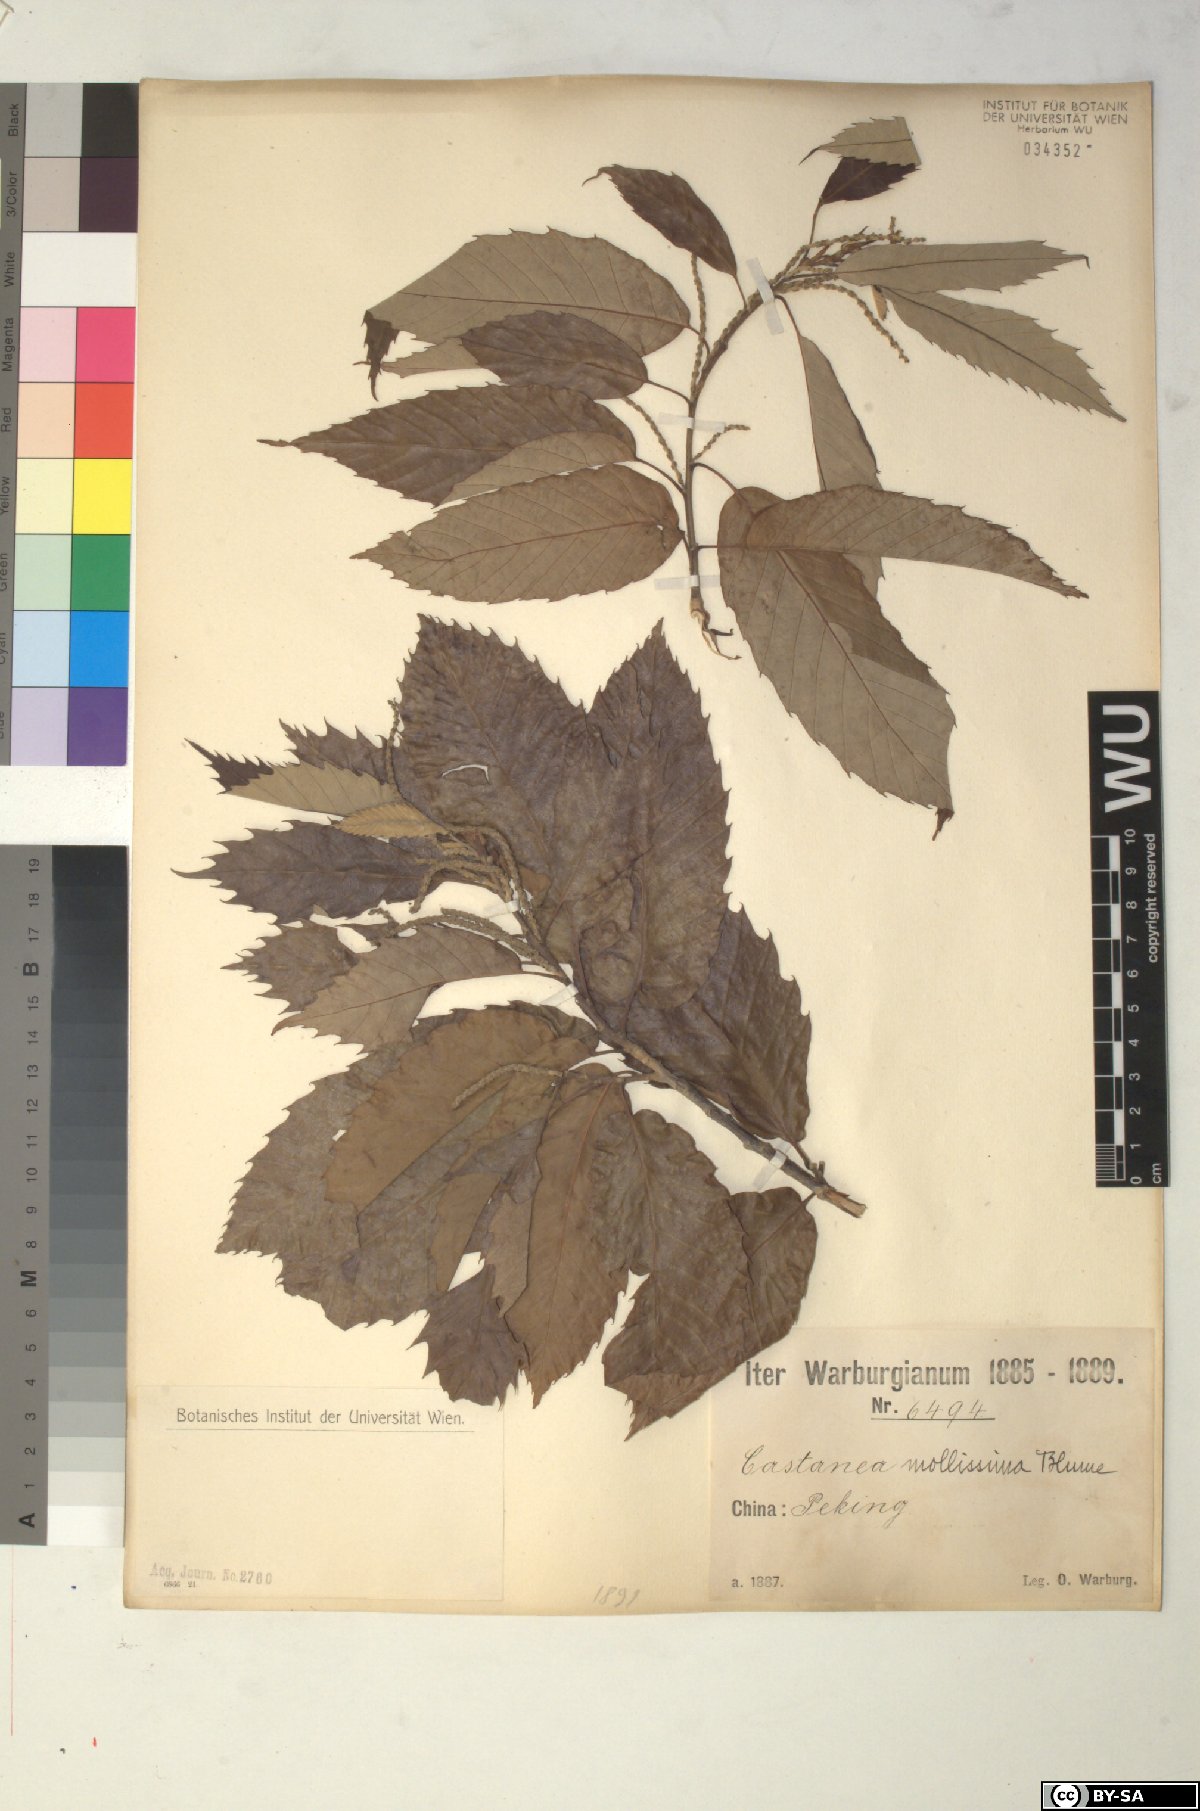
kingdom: Plantae
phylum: Tracheophyta
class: Magnoliopsida
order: Fagales
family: Fagaceae
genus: Castanea
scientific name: Castanea mollissima
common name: Chinese chestnut
